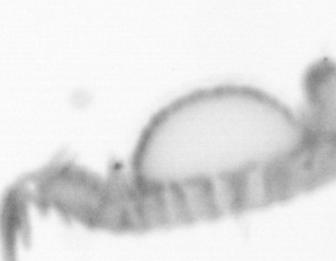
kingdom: Animalia
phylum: Annelida
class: Polychaeta
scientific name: Polychaeta
